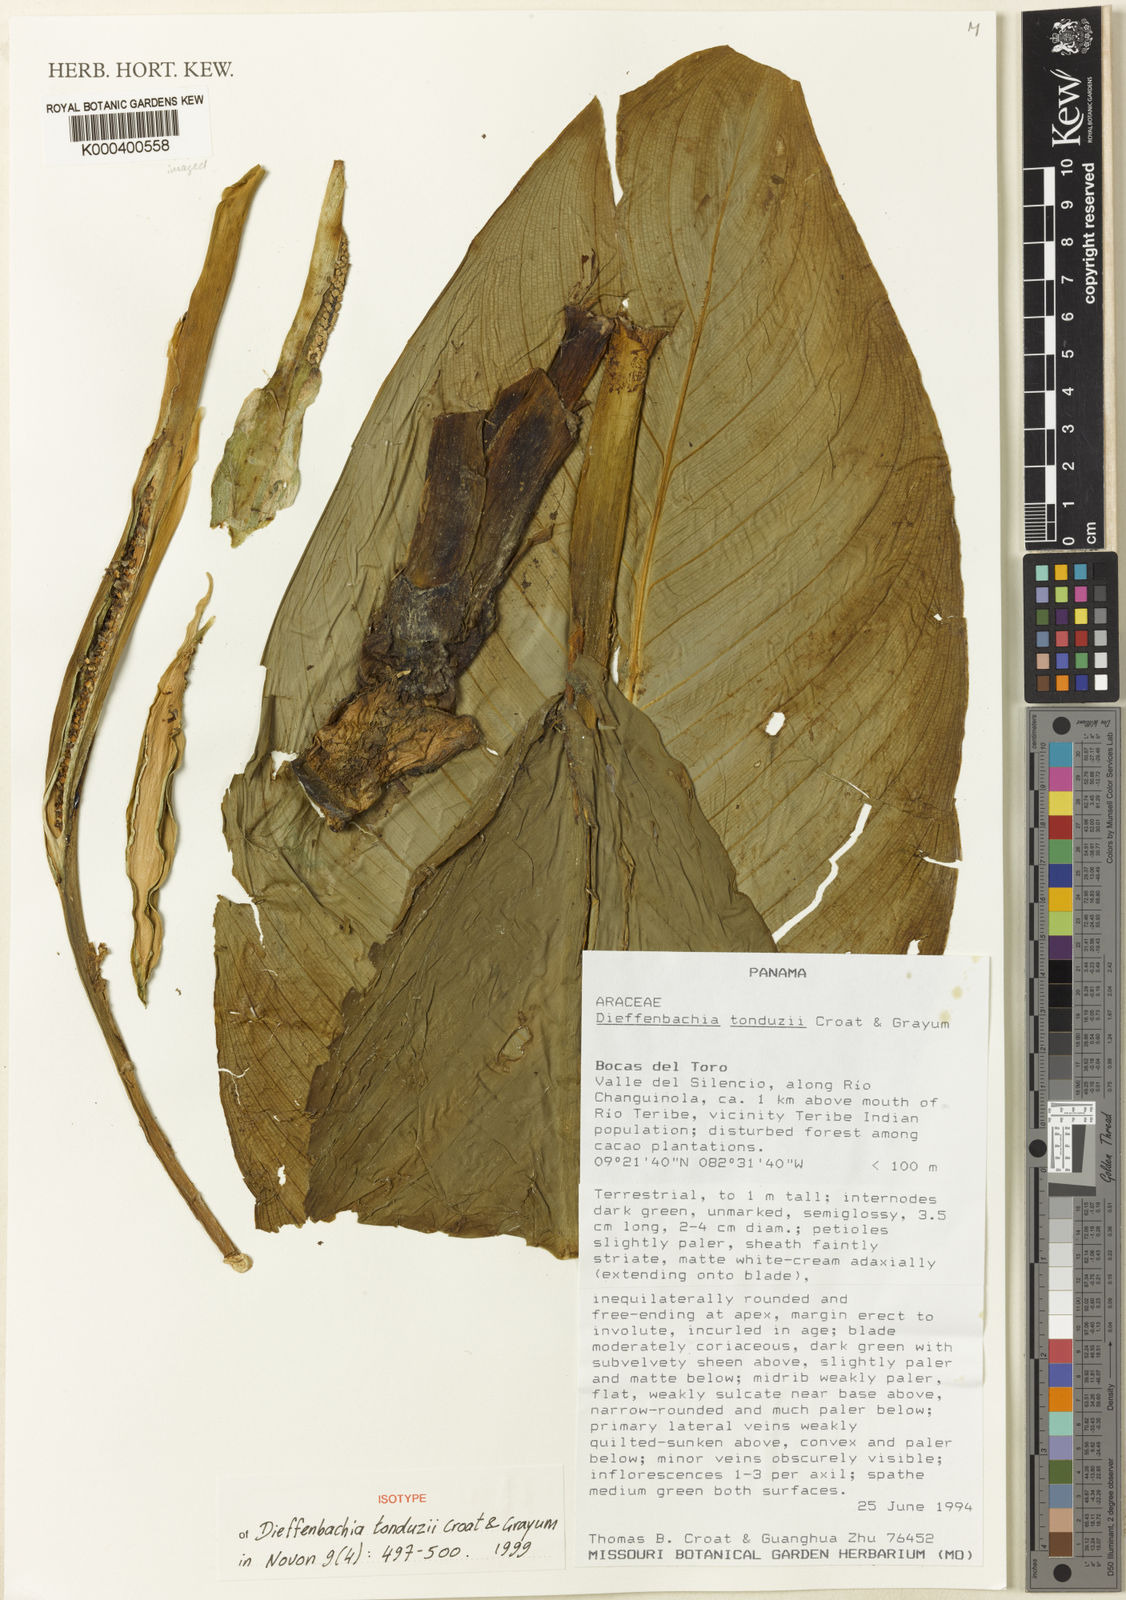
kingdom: Plantae
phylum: Tracheophyta
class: Liliopsida
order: Alismatales
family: Araceae
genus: Dieffenbachia
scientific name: Dieffenbachia tonduzii
